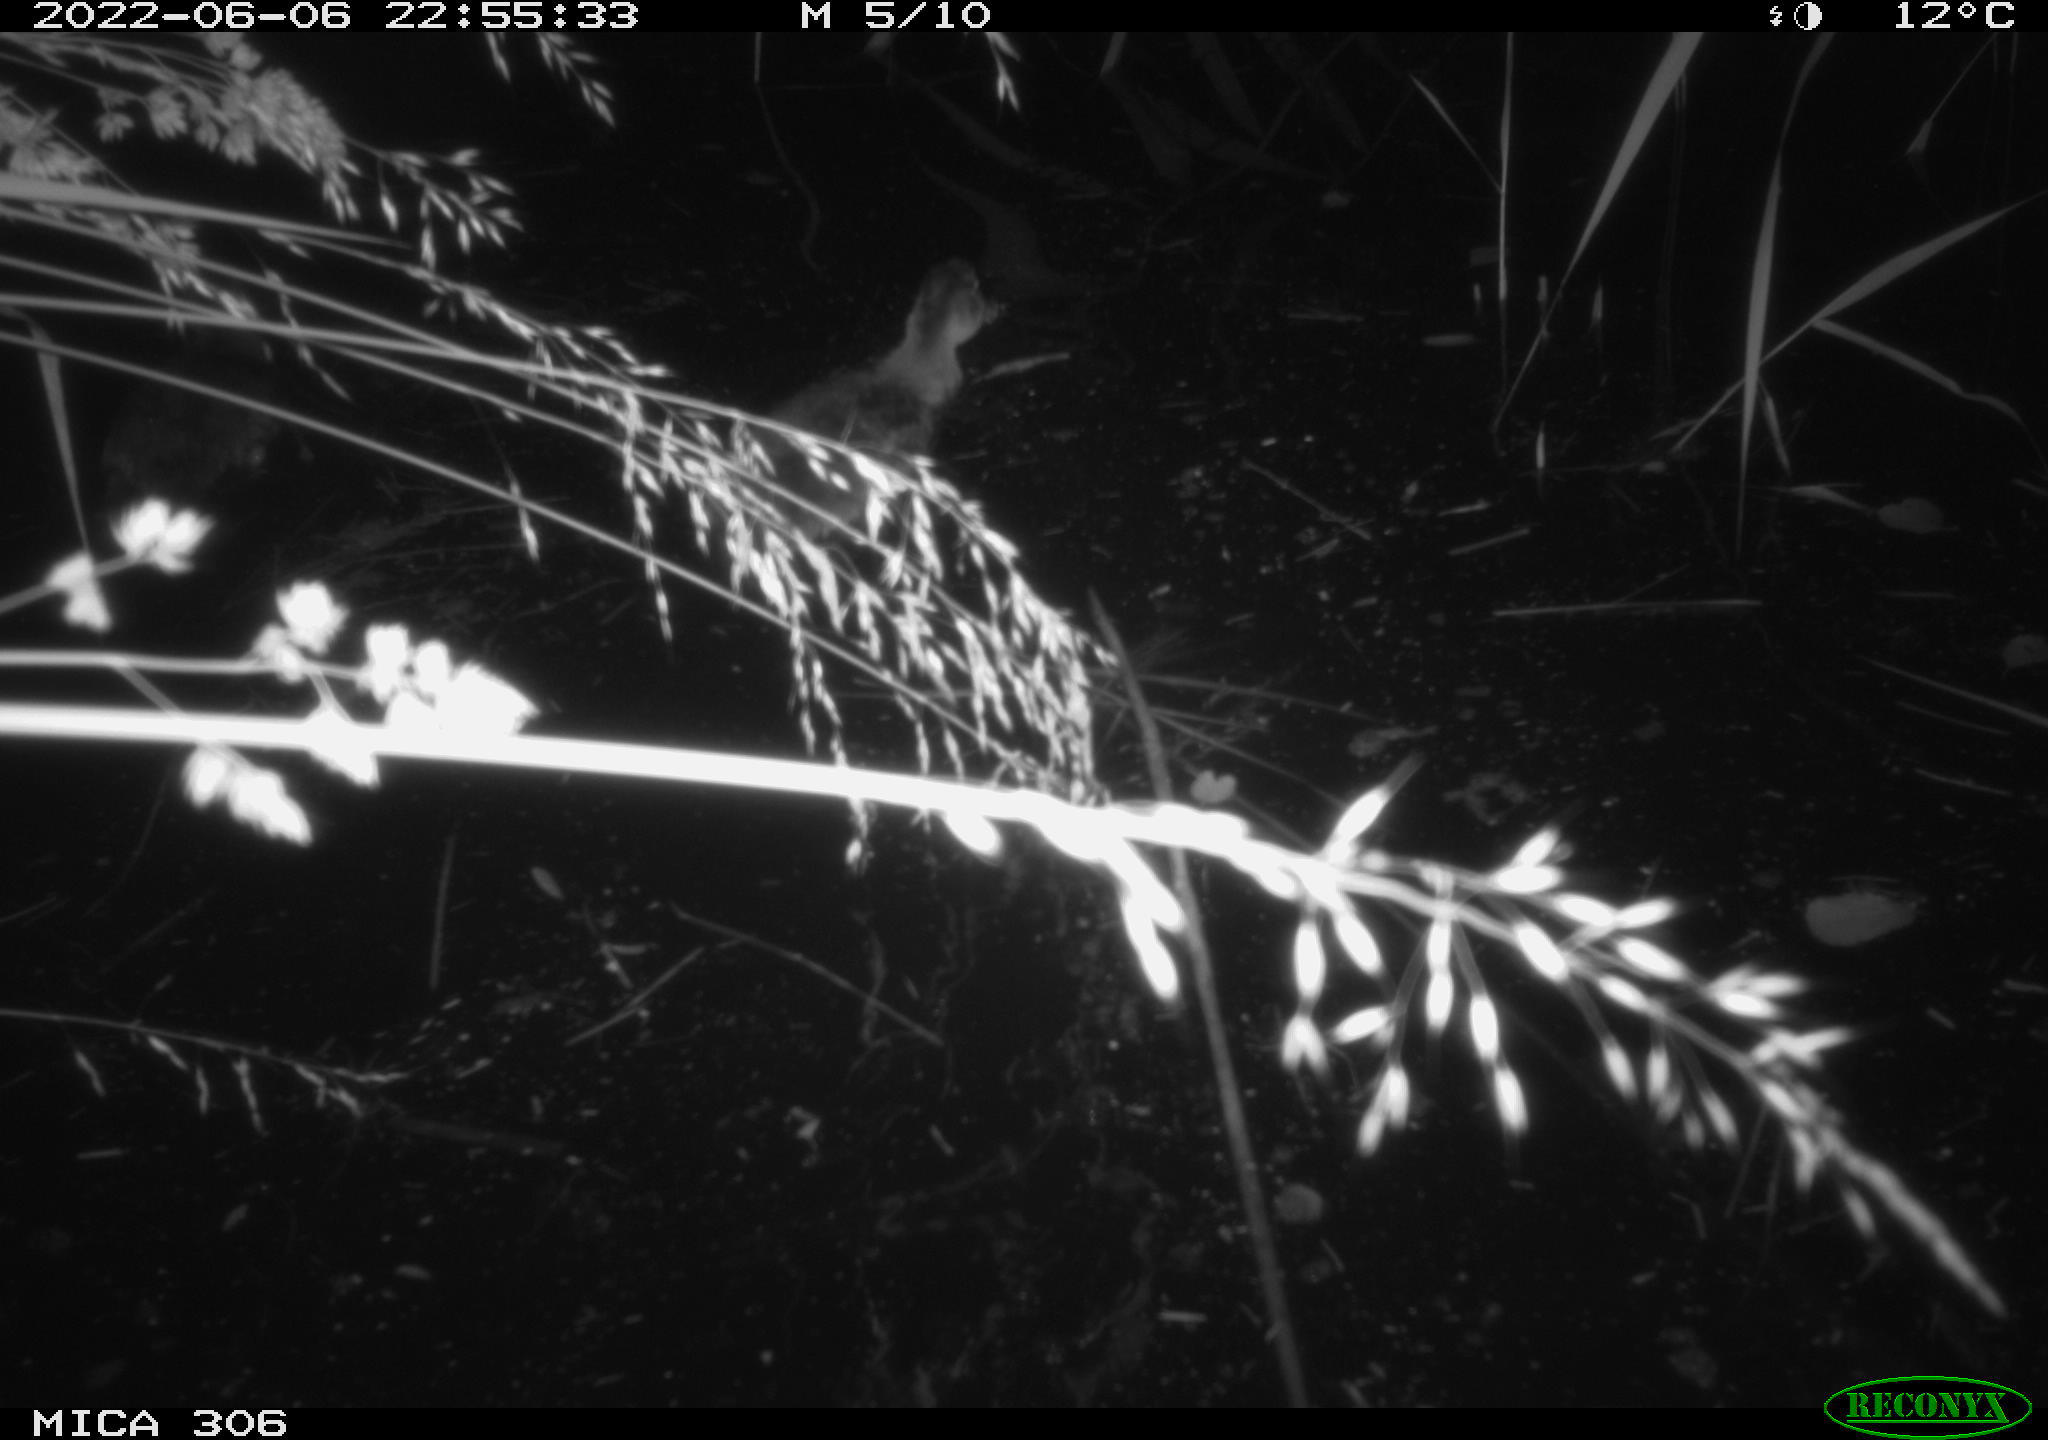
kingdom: Animalia
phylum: Chordata
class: Aves
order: Anseriformes
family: Anatidae
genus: Anas
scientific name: Anas platyrhynchos
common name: Mallard
